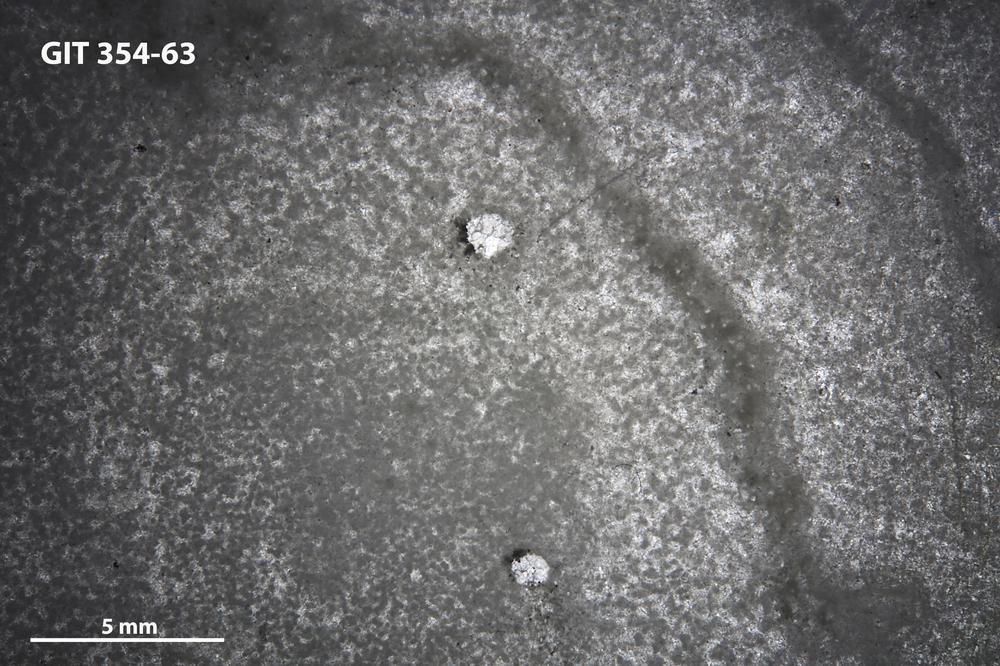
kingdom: Animalia
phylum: Porifera
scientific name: Porifera
